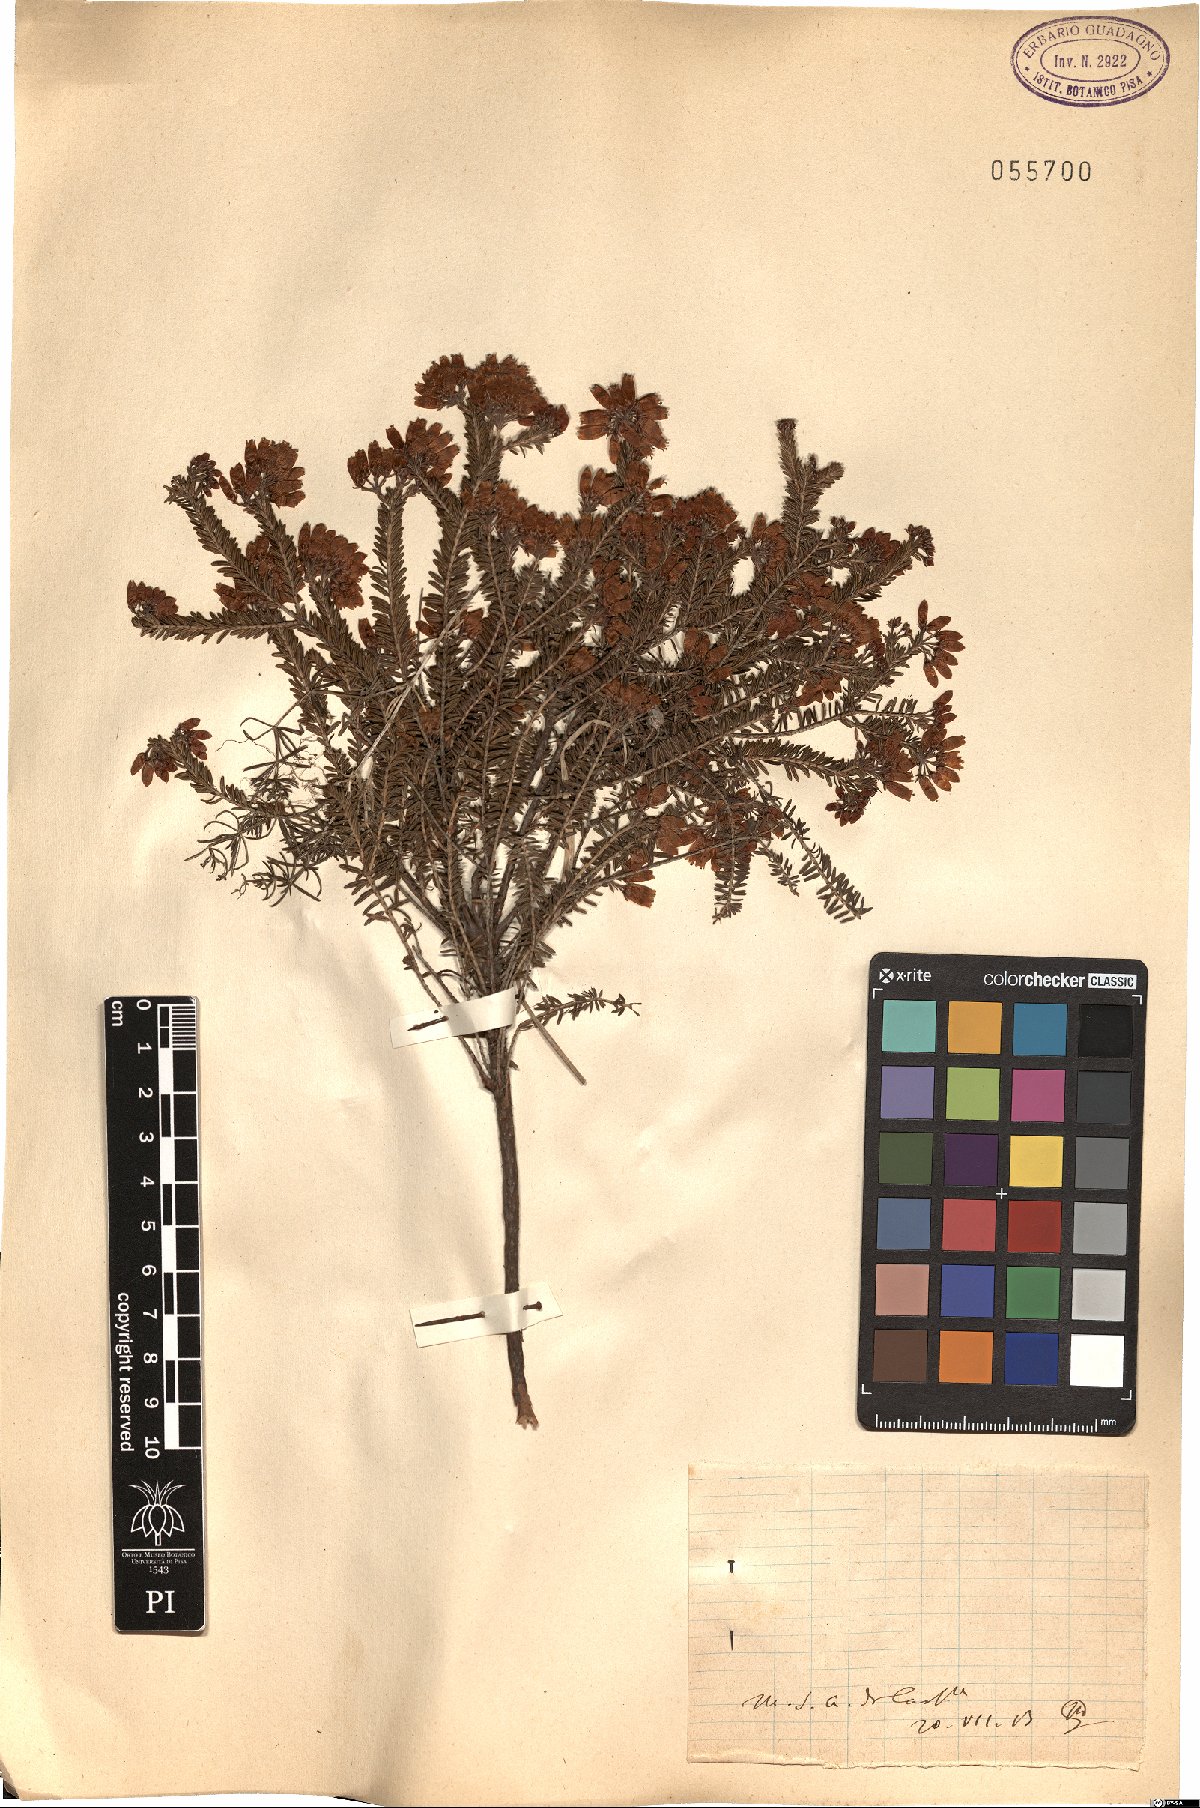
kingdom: Plantae
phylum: Tracheophyta
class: Magnoliopsida
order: Ericales
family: Ericaceae
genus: Erica
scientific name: Erica
